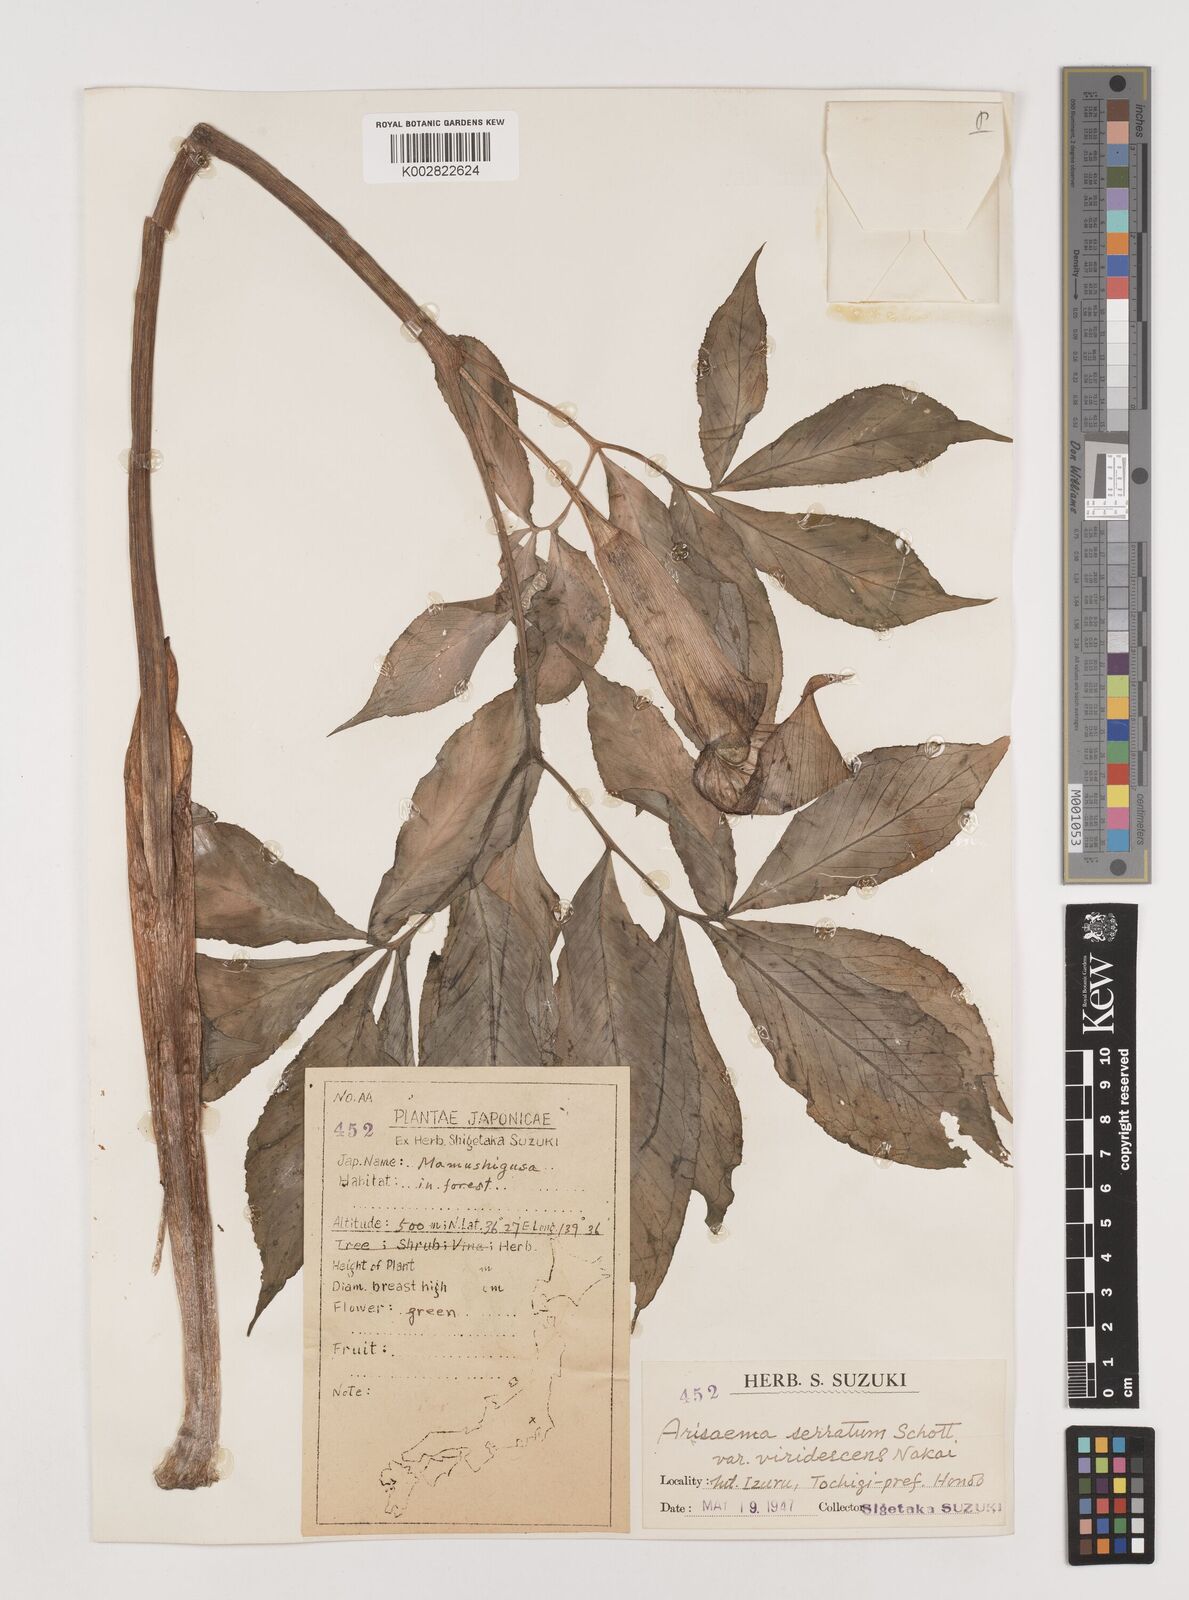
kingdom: Plantae
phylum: Tracheophyta
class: Liliopsida
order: Alismatales
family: Araceae
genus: Arisaema
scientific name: Arisaema serratum
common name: Japanese arisaema
